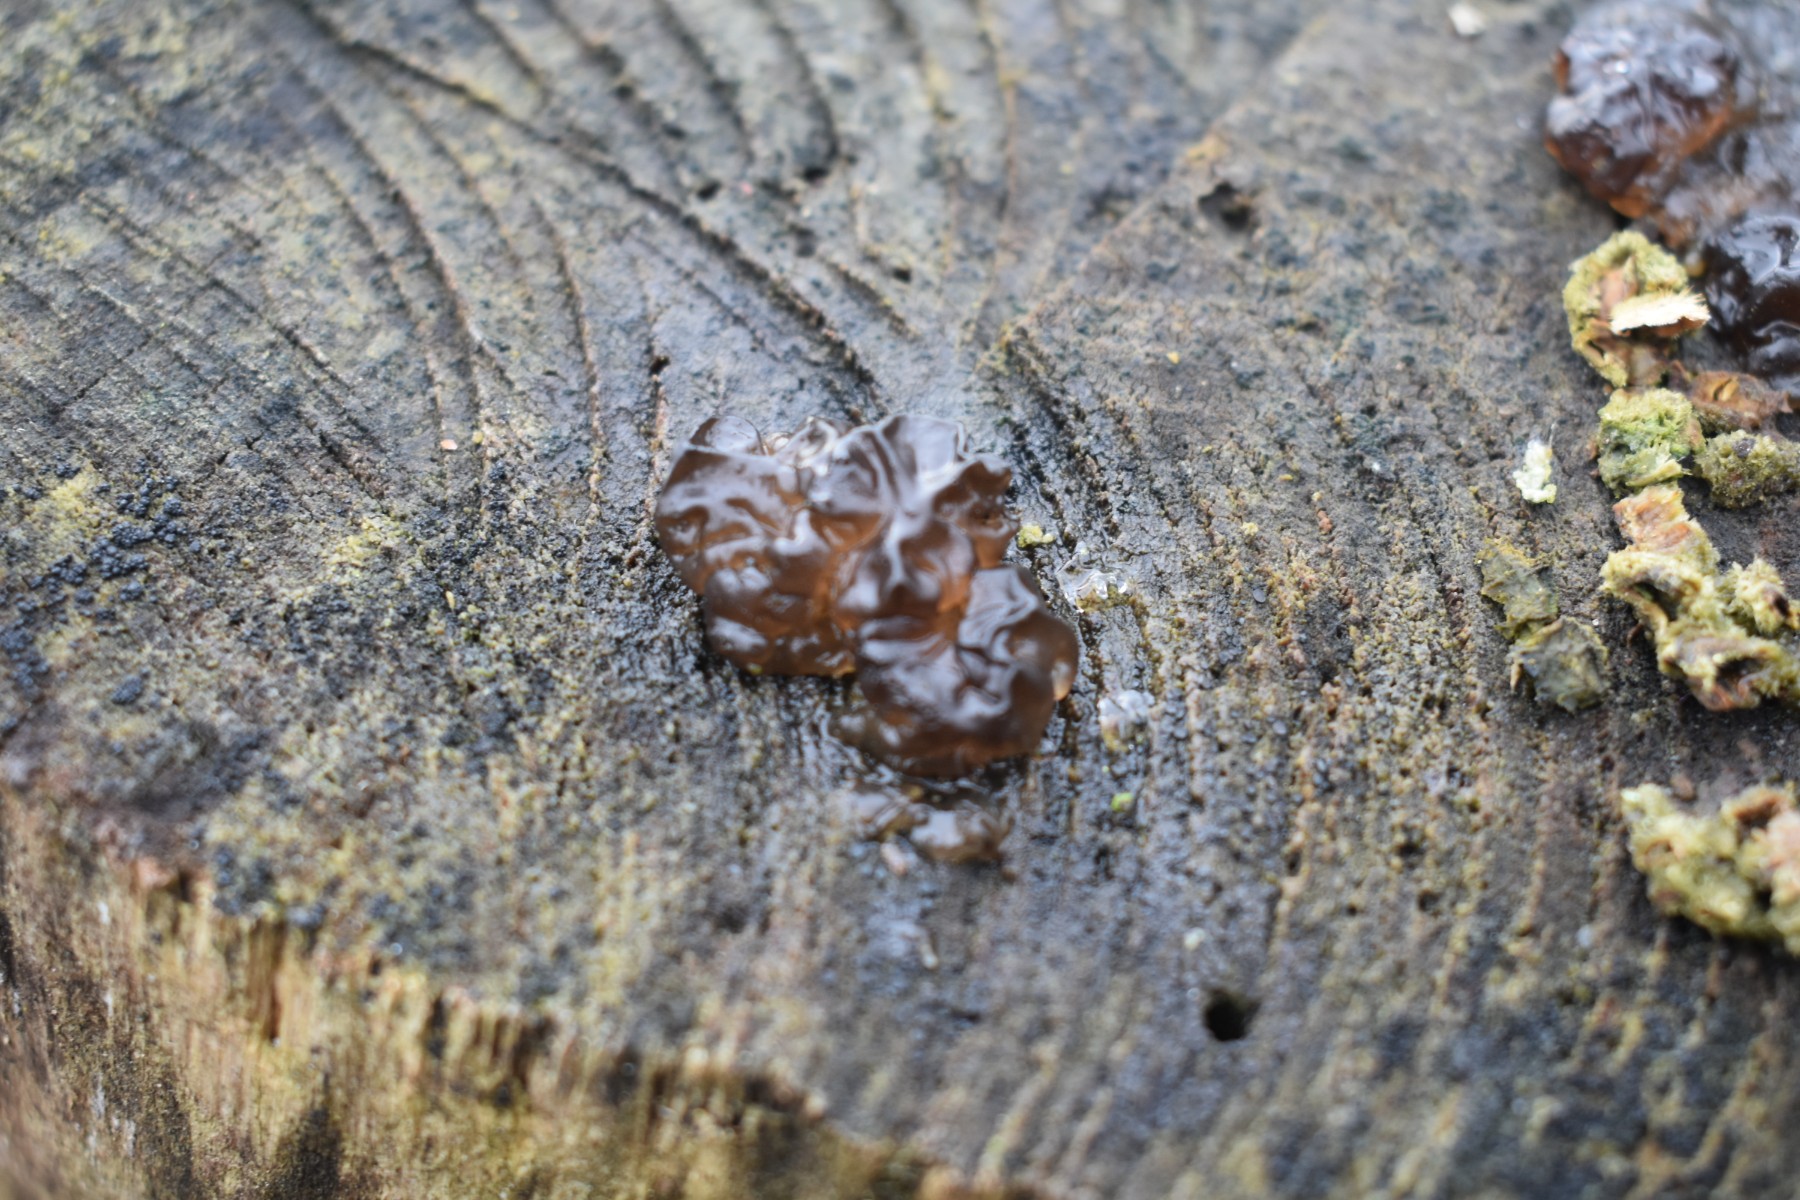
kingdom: Fungi
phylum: Basidiomycota
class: Agaricomycetes
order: Auriculariales
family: Auriculariaceae
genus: Exidia
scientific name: Exidia nigricans
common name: almindelig bævretop
